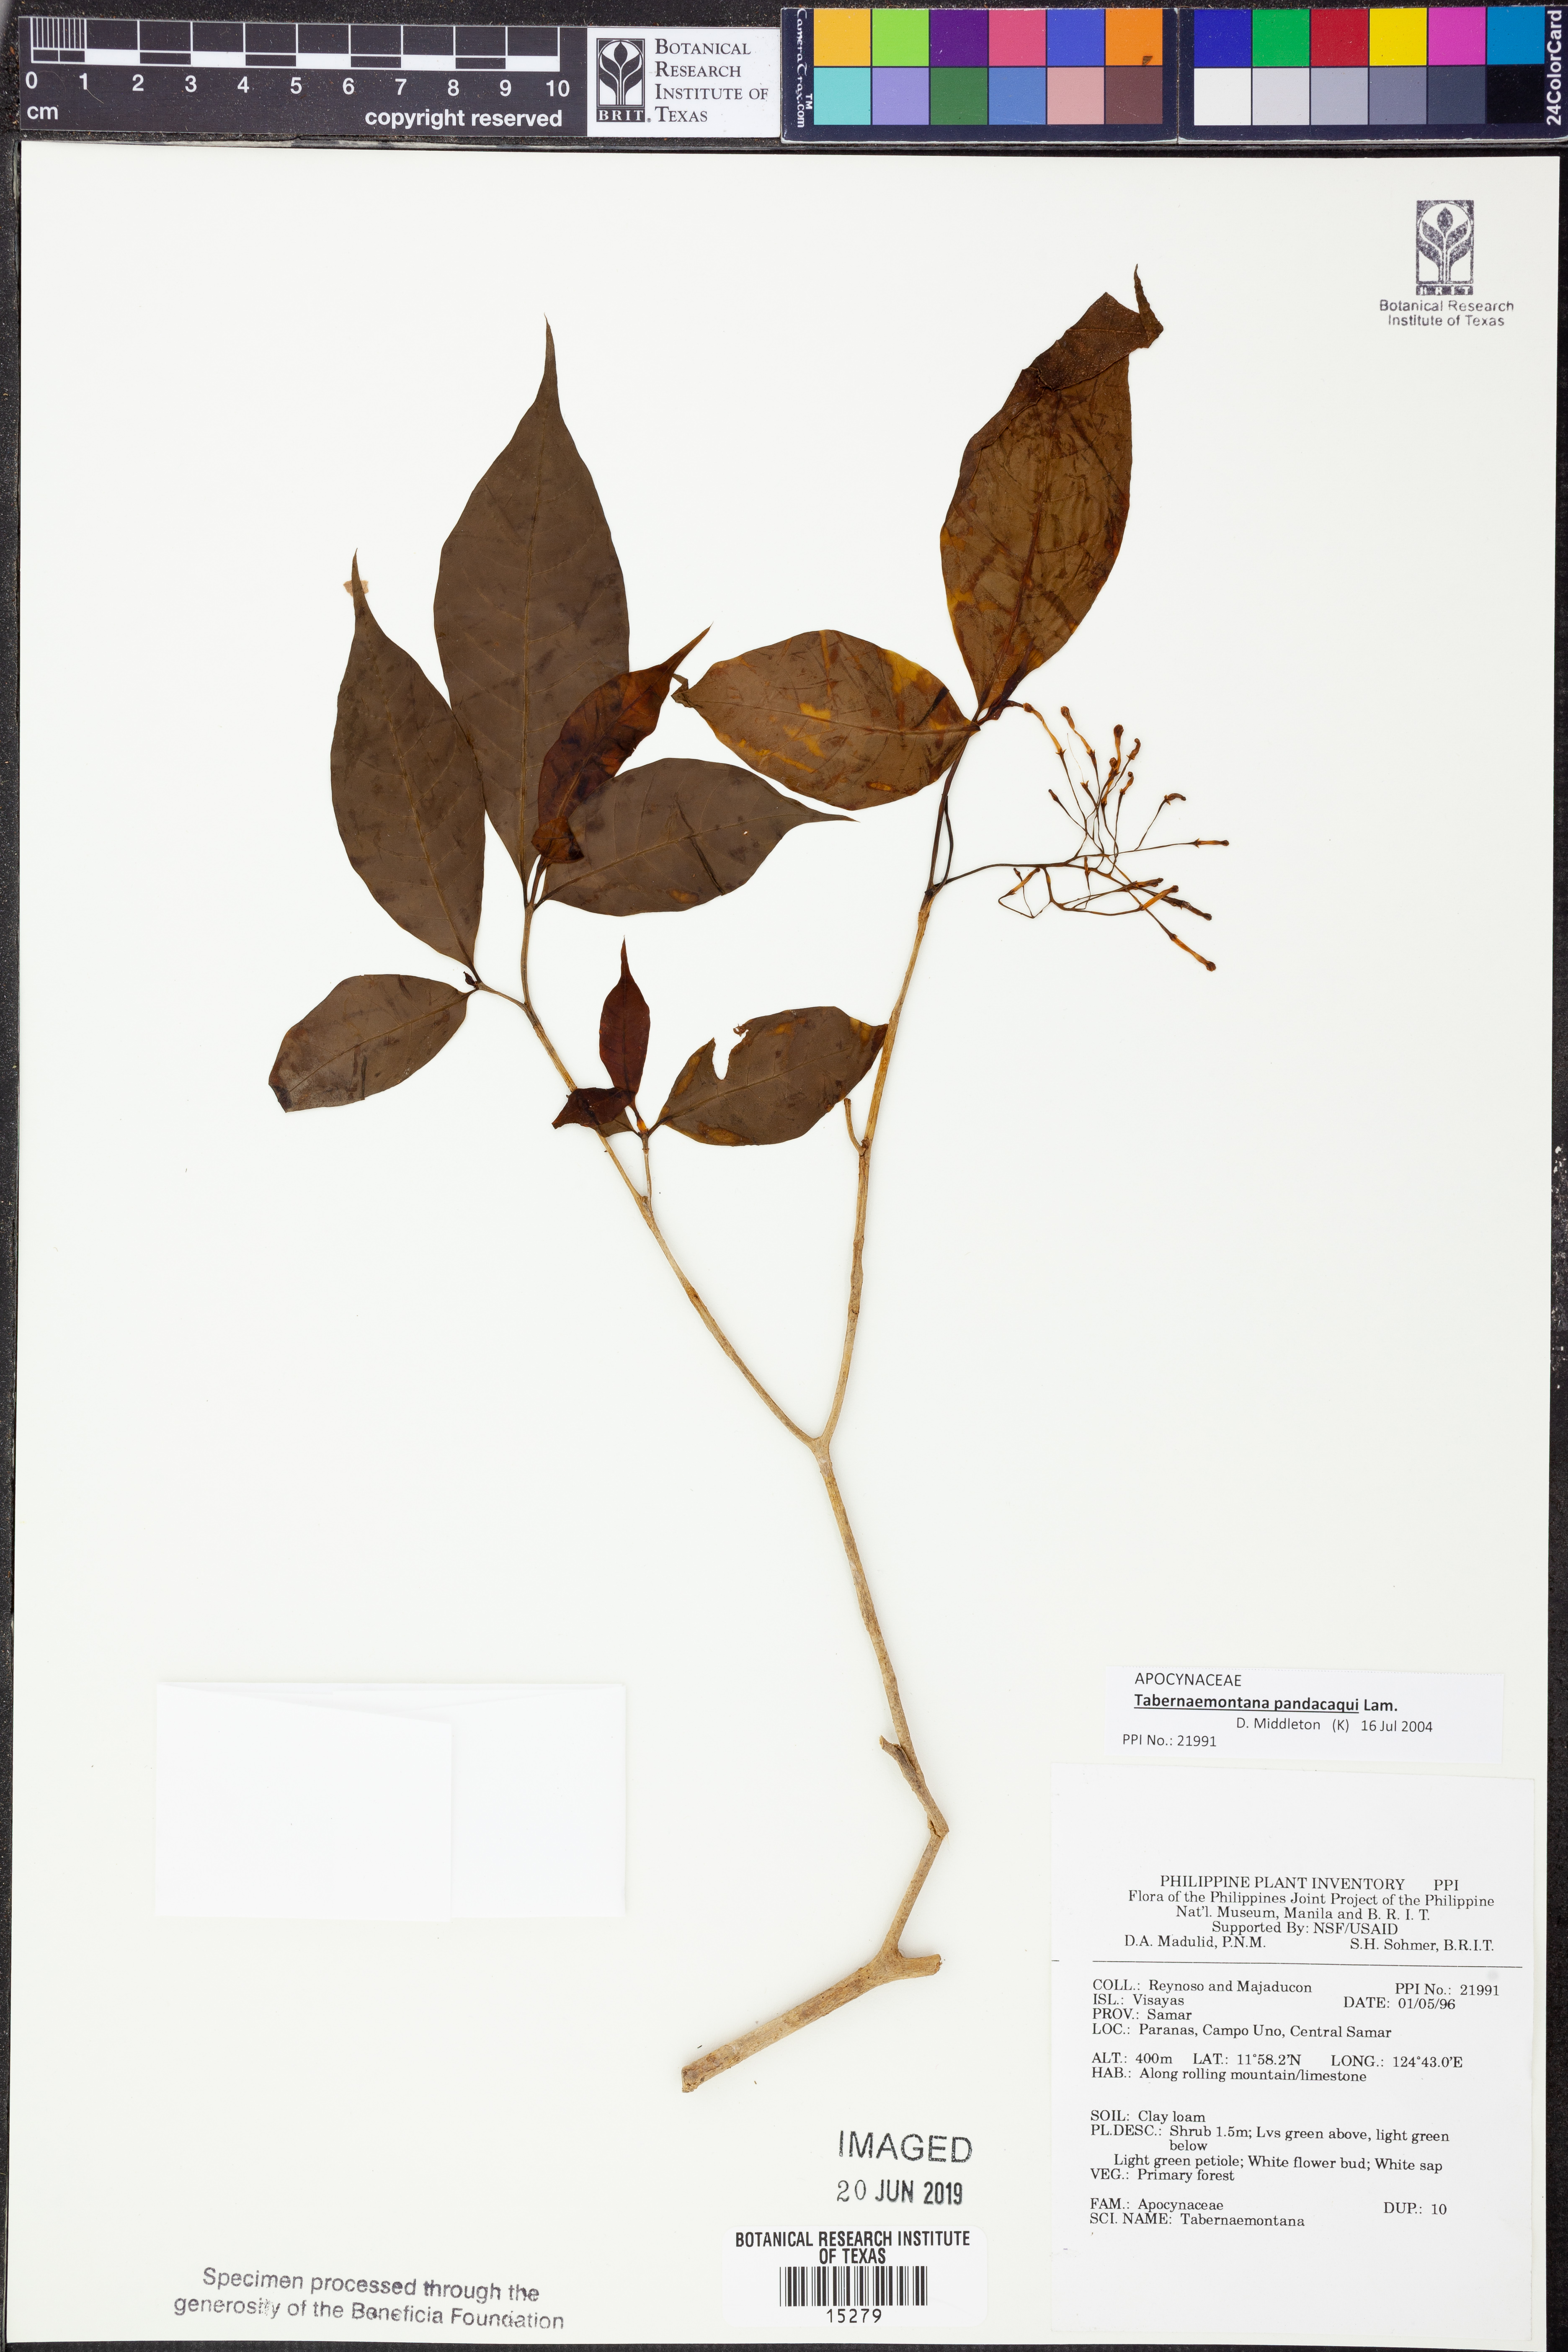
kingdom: Plantae
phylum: Tracheophyta
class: Magnoliopsida
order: Gentianales
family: Apocynaceae
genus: Tabernaemontana
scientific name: Tabernaemontana pandacaqui
